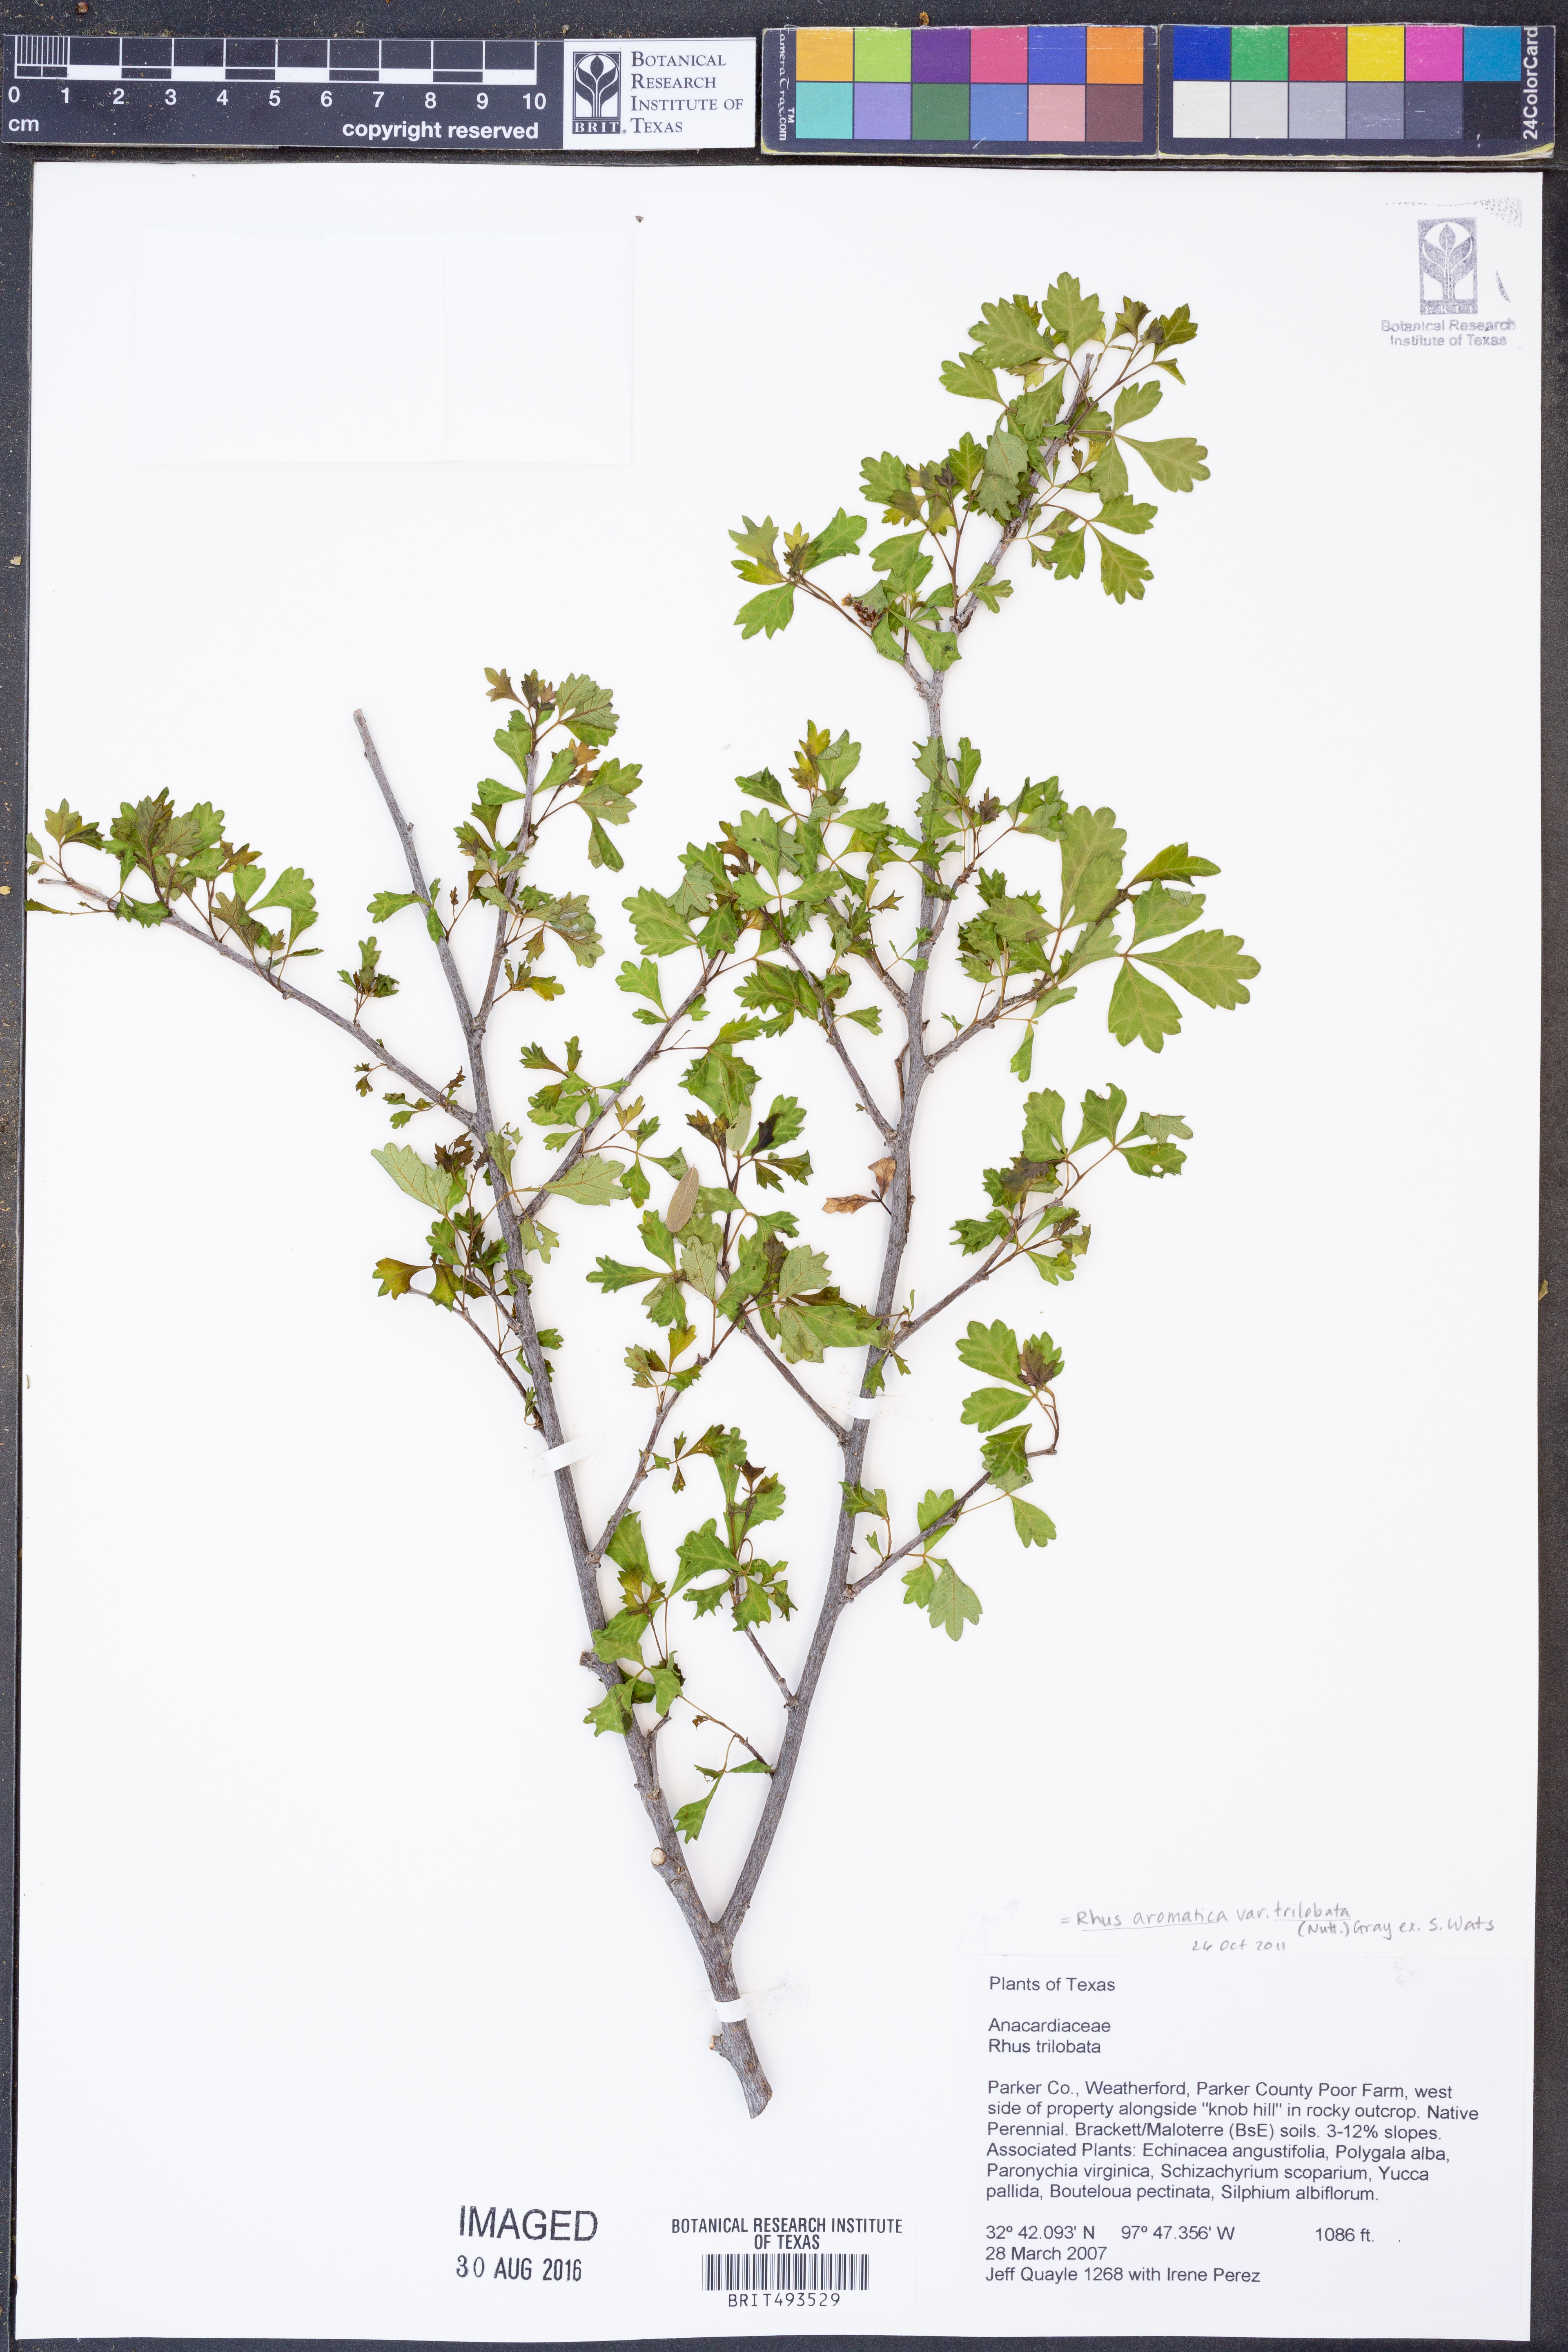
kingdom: Plantae
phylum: Tracheophyta
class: Magnoliopsida
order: Sapindales
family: Anacardiaceae
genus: Rhus
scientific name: Rhus trilobata
